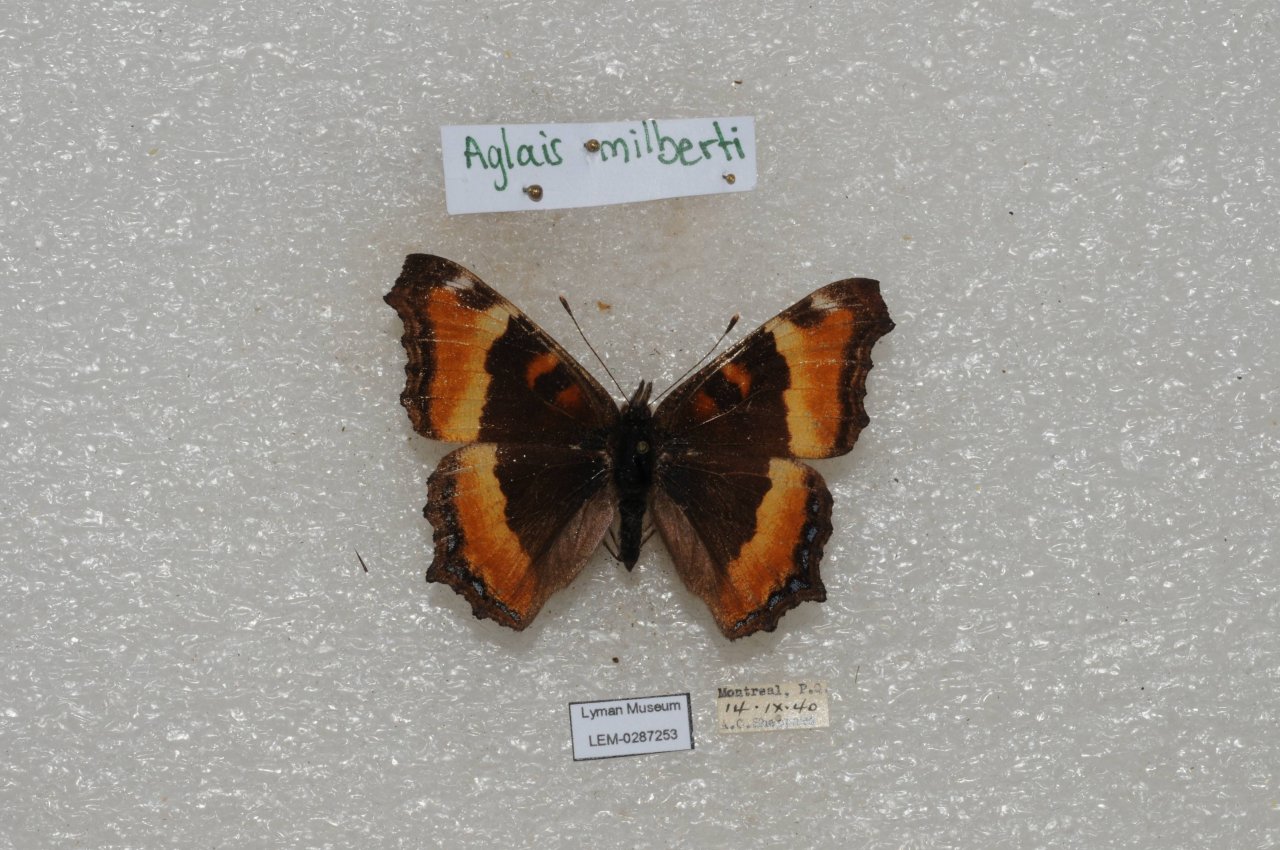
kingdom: Animalia
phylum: Arthropoda
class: Insecta
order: Lepidoptera
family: Nymphalidae
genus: Aglais
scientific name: Aglais milberti
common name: Milbert's Tortoiseshell
